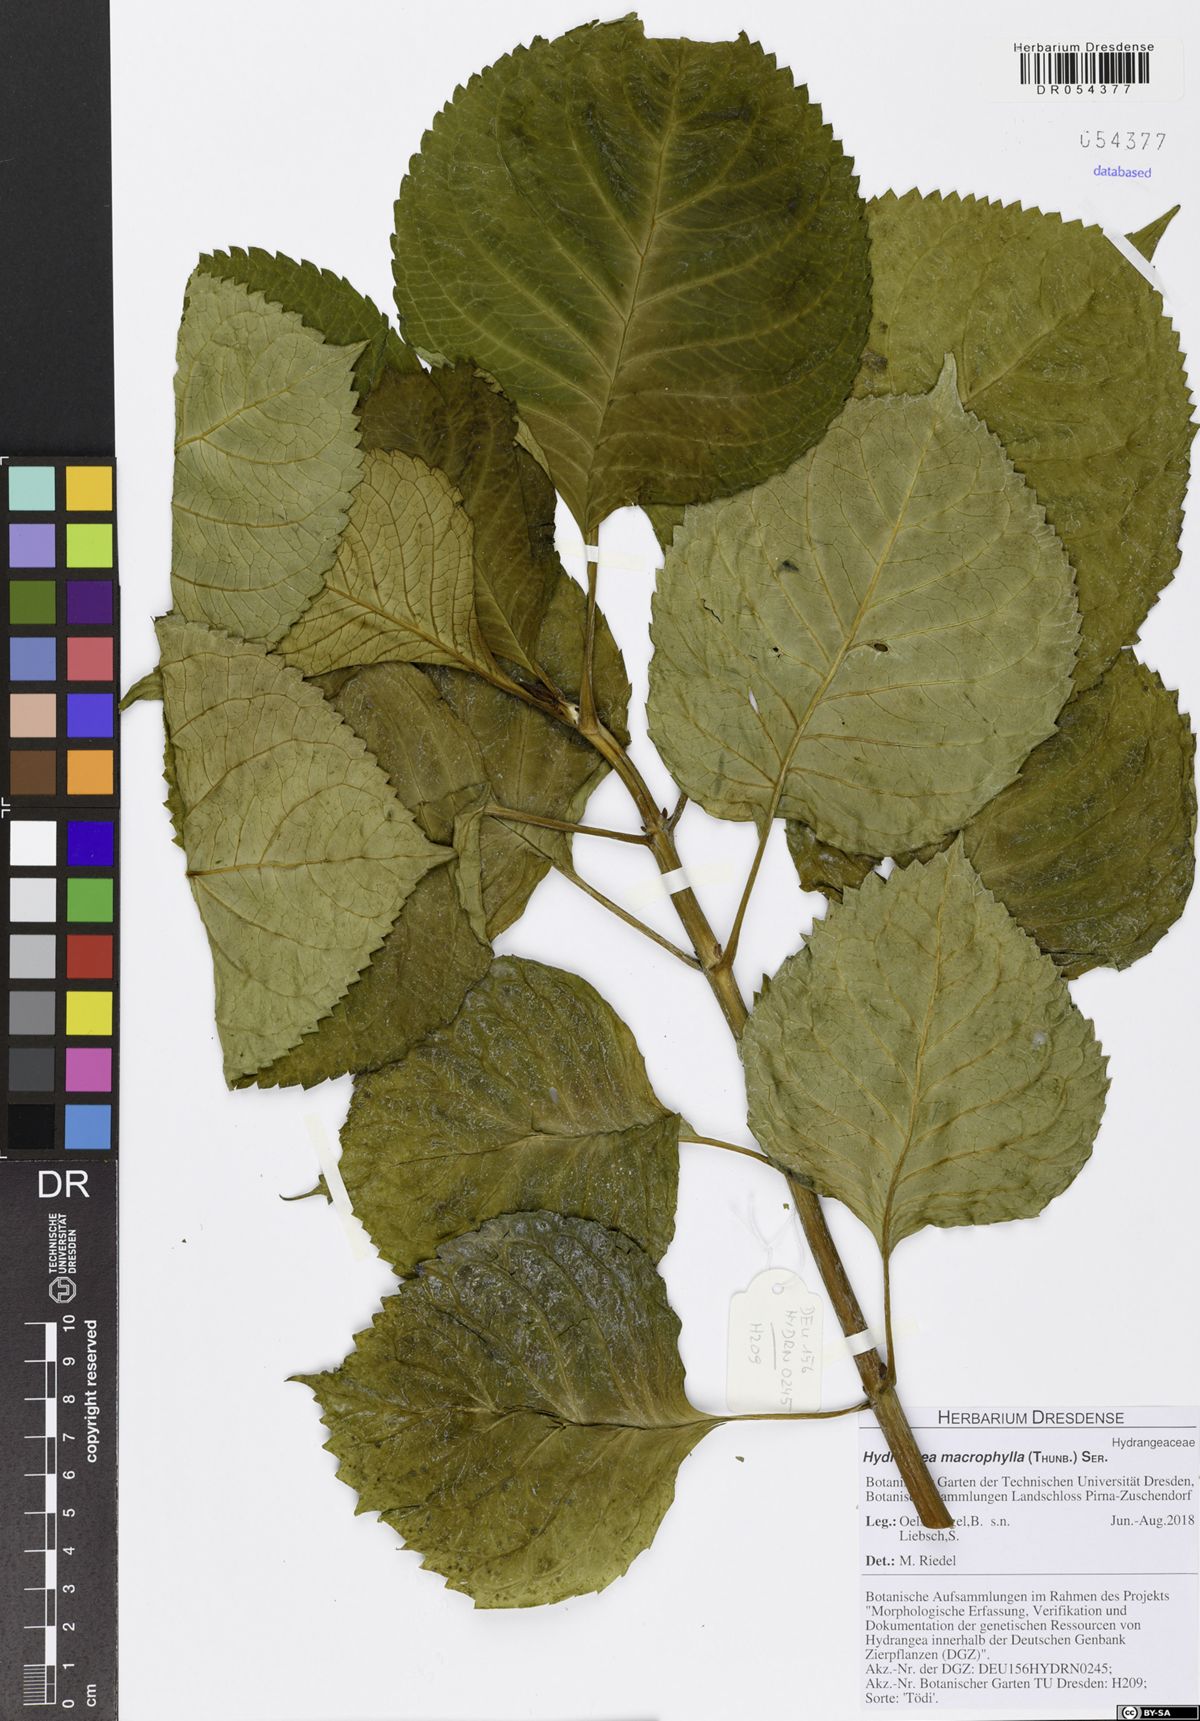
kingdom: Plantae
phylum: Tracheophyta
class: Magnoliopsida
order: Cornales
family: Hydrangeaceae
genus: Hydrangea
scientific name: Hydrangea macrophylla
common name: Hydrangea
